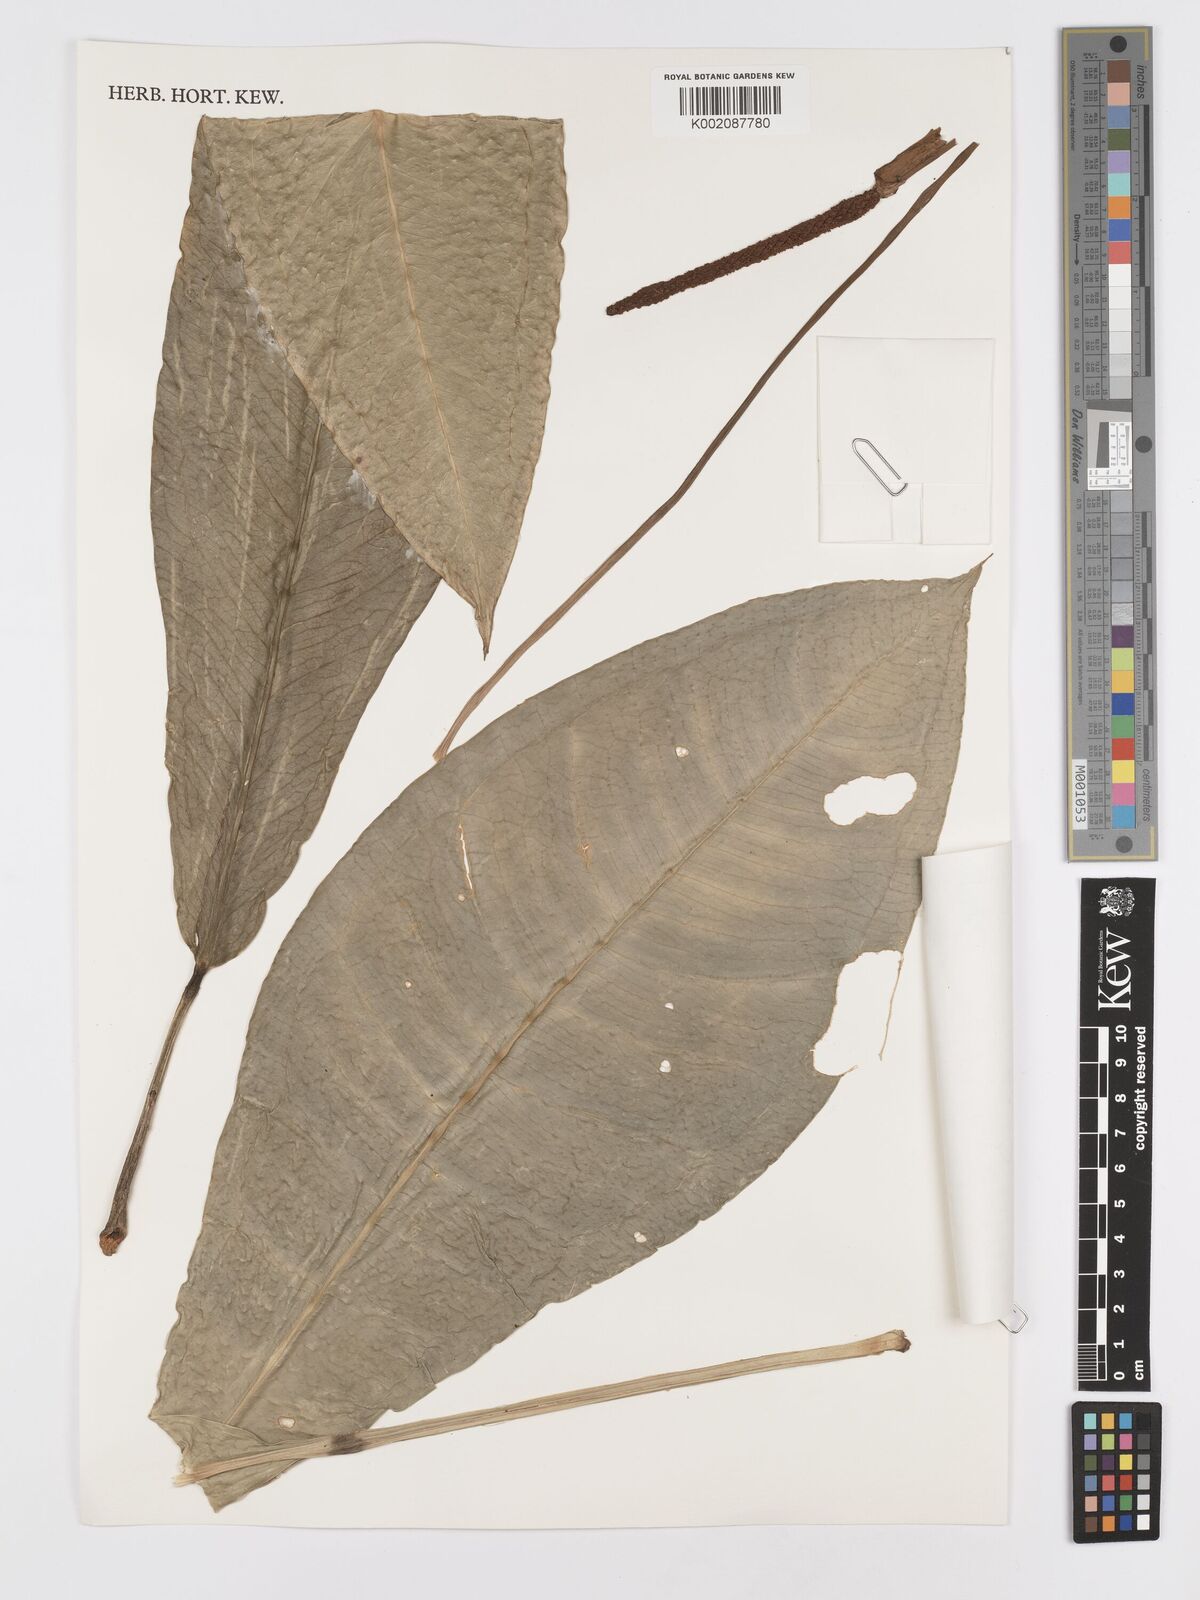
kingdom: Plantae
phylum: Tracheophyta
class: Liliopsida
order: Alismatales
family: Araceae
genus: Anthurium
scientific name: Anthurium parasiticum
